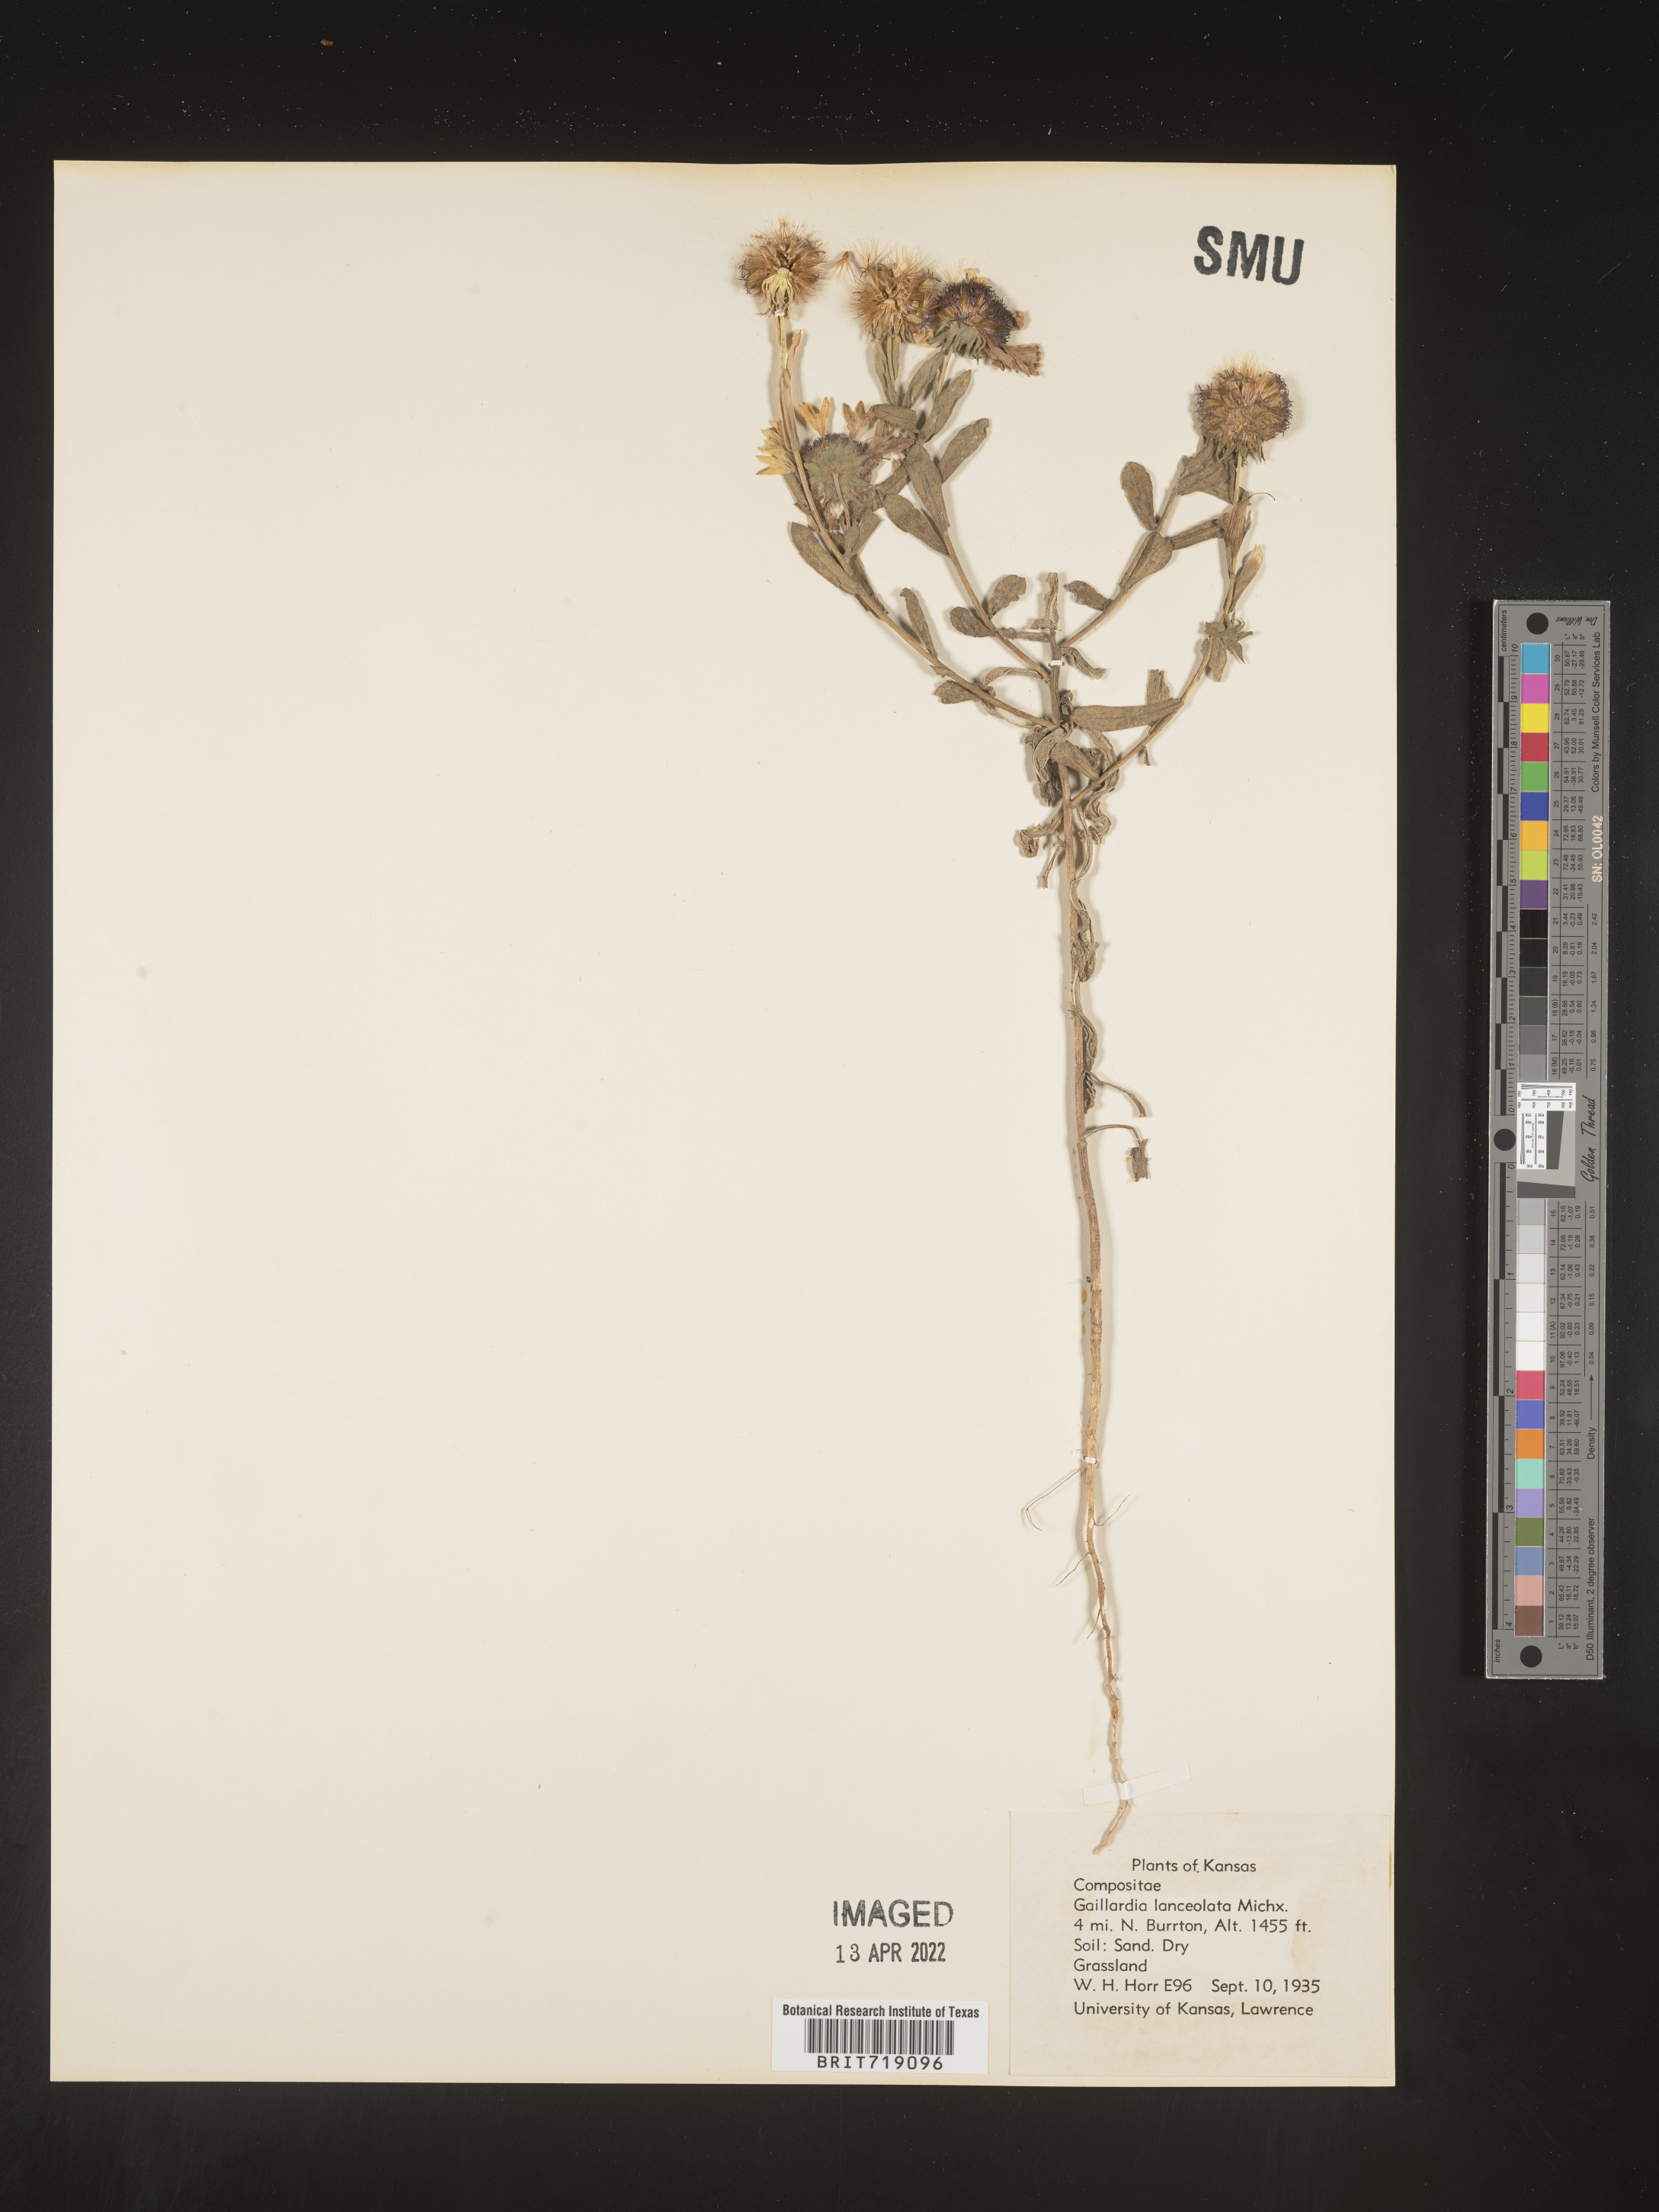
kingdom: Plantae
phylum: Tracheophyta
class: Magnoliopsida
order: Asterales
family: Asteraceae
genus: Gaillardia
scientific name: Gaillardia aestivalis
